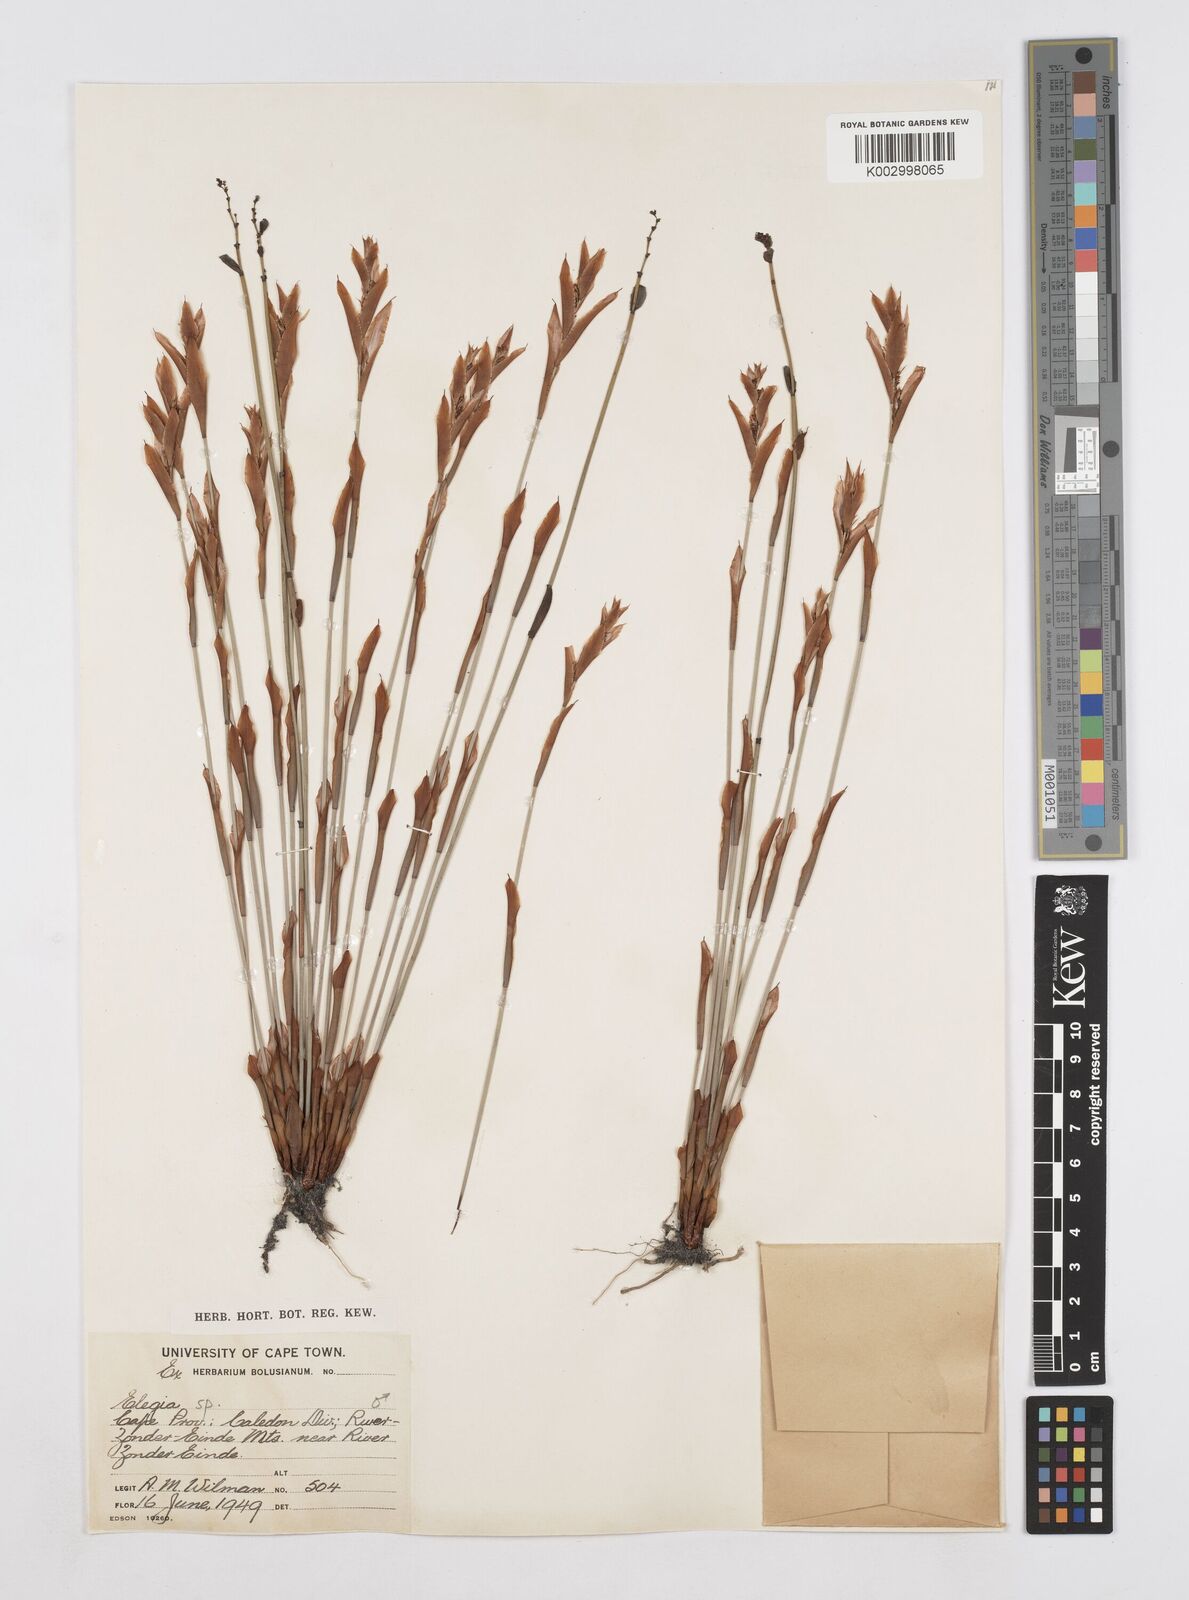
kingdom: Plantae
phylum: Tracheophyta
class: Liliopsida
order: Poales
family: Restionaceae
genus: Elegia
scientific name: Elegia
